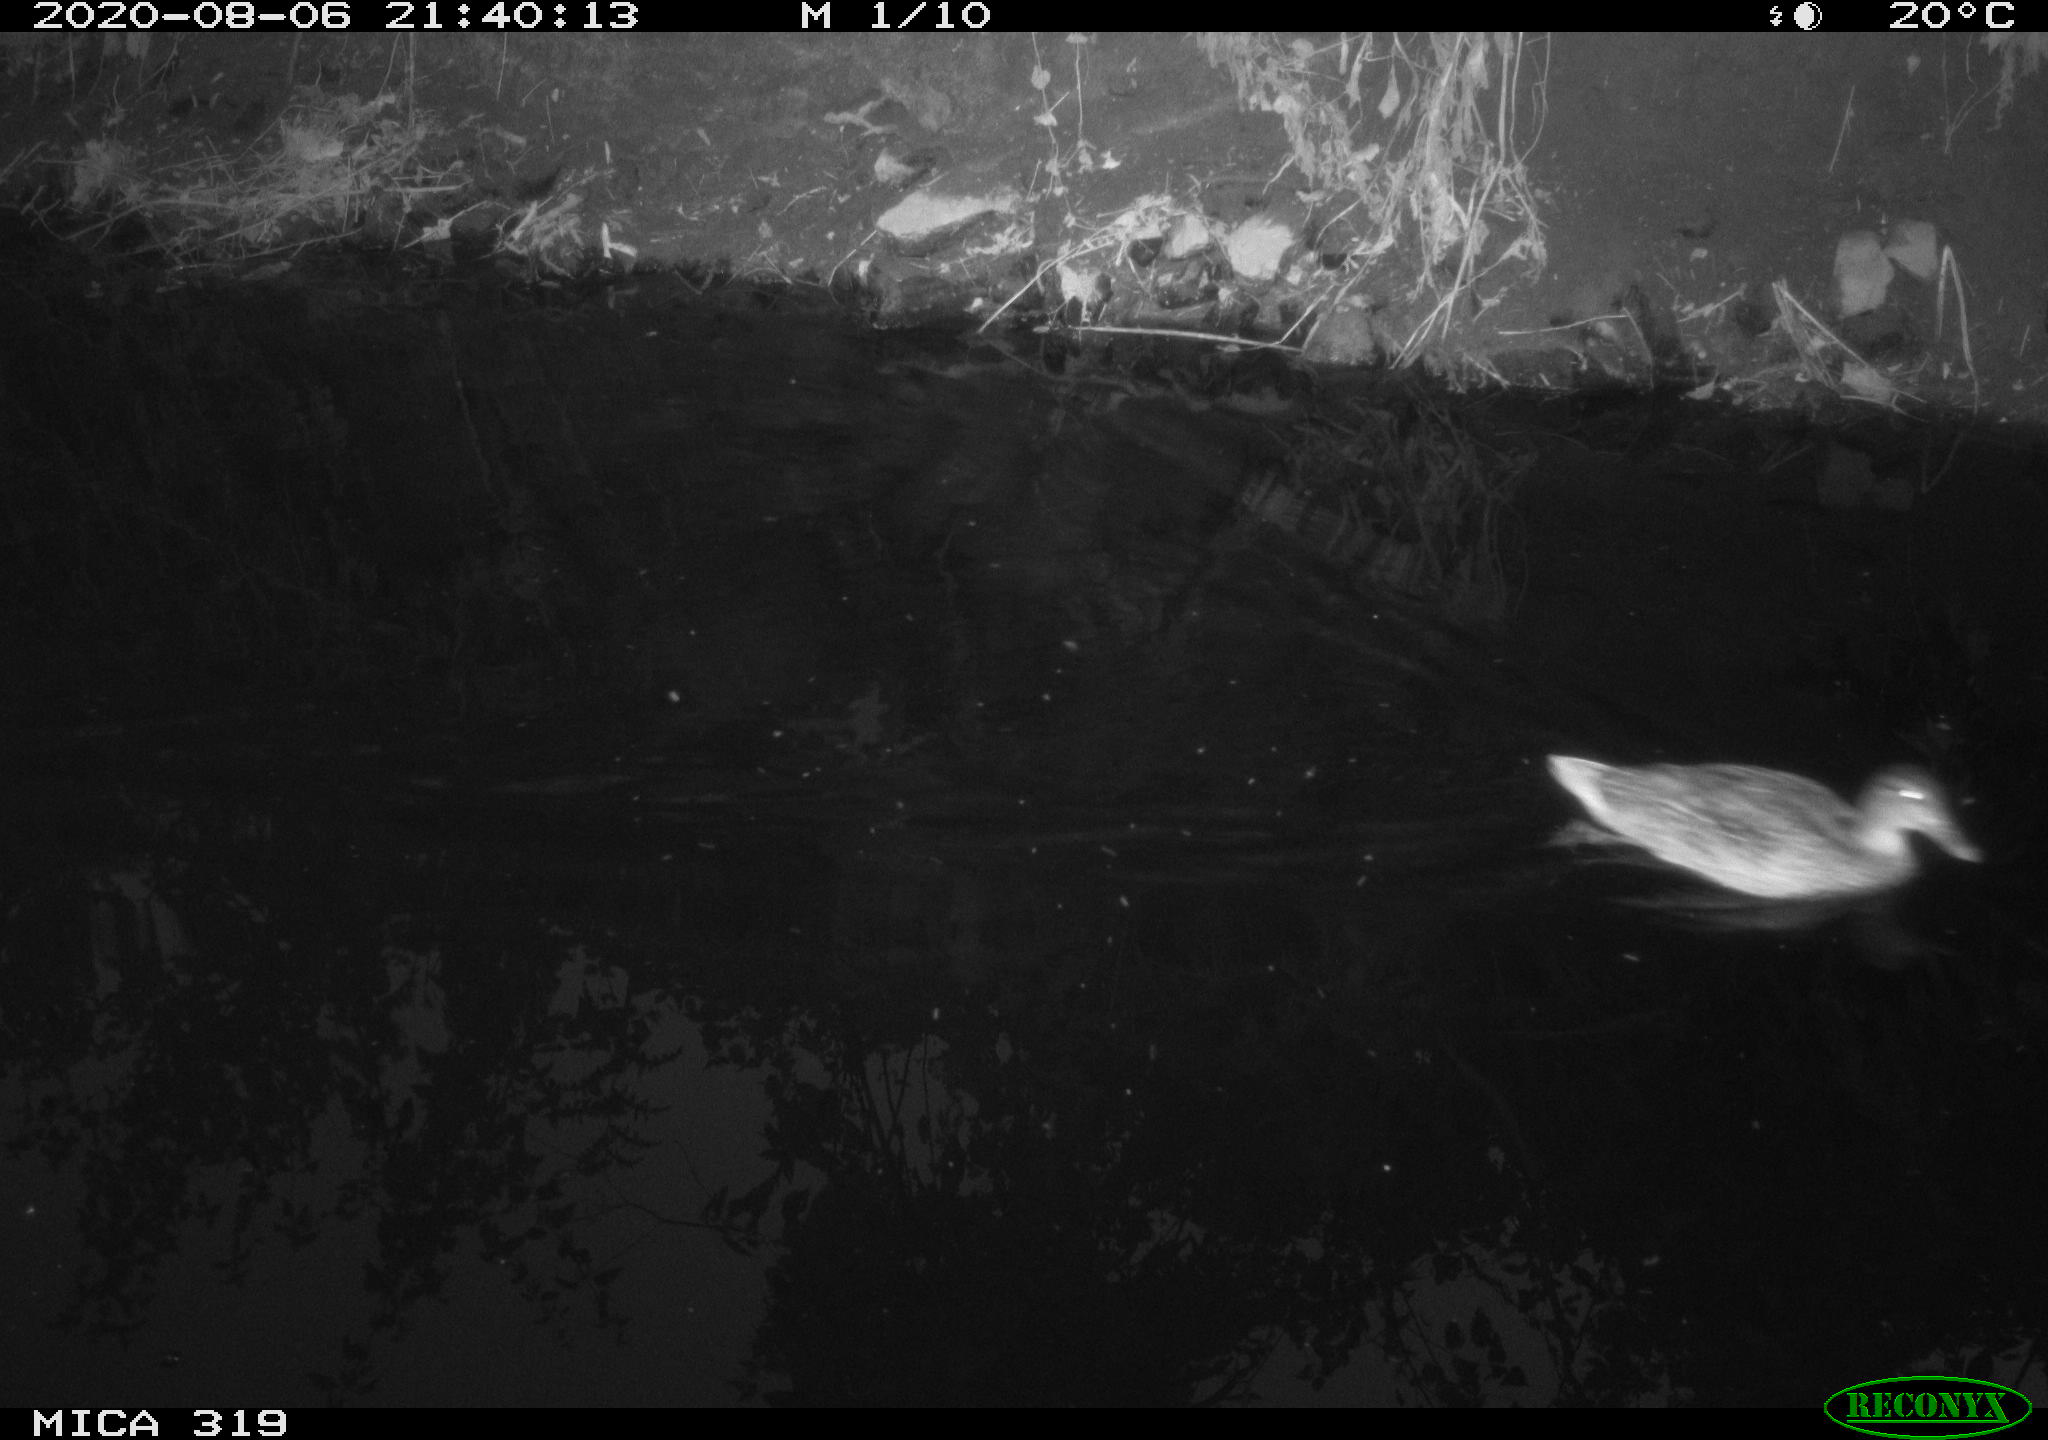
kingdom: Animalia
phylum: Chordata
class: Aves
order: Anseriformes
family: Anatidae
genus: Anas
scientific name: Anas platyrhynchos
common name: Mallard
